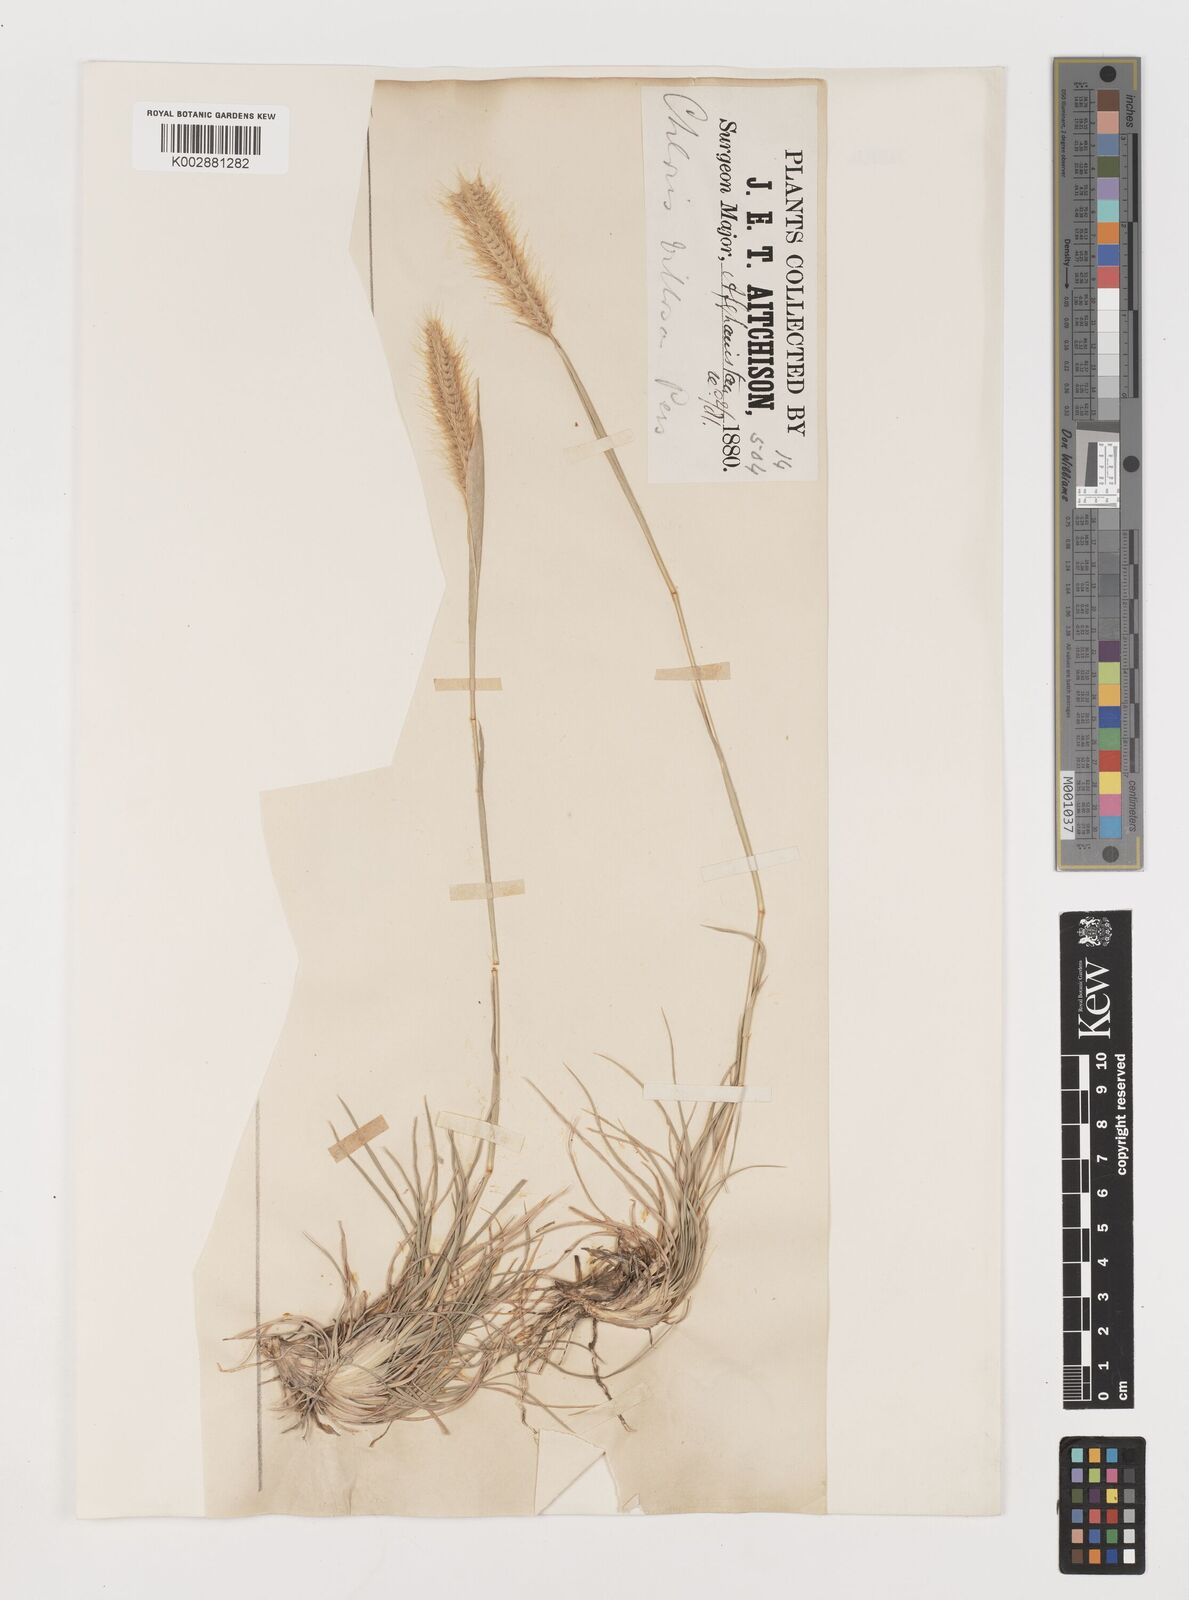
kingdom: Plantae
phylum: Tracheophyta
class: Liliopsida
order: Poales
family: Poaceae
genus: Tetrapogon
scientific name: Tetrapogon villosus
